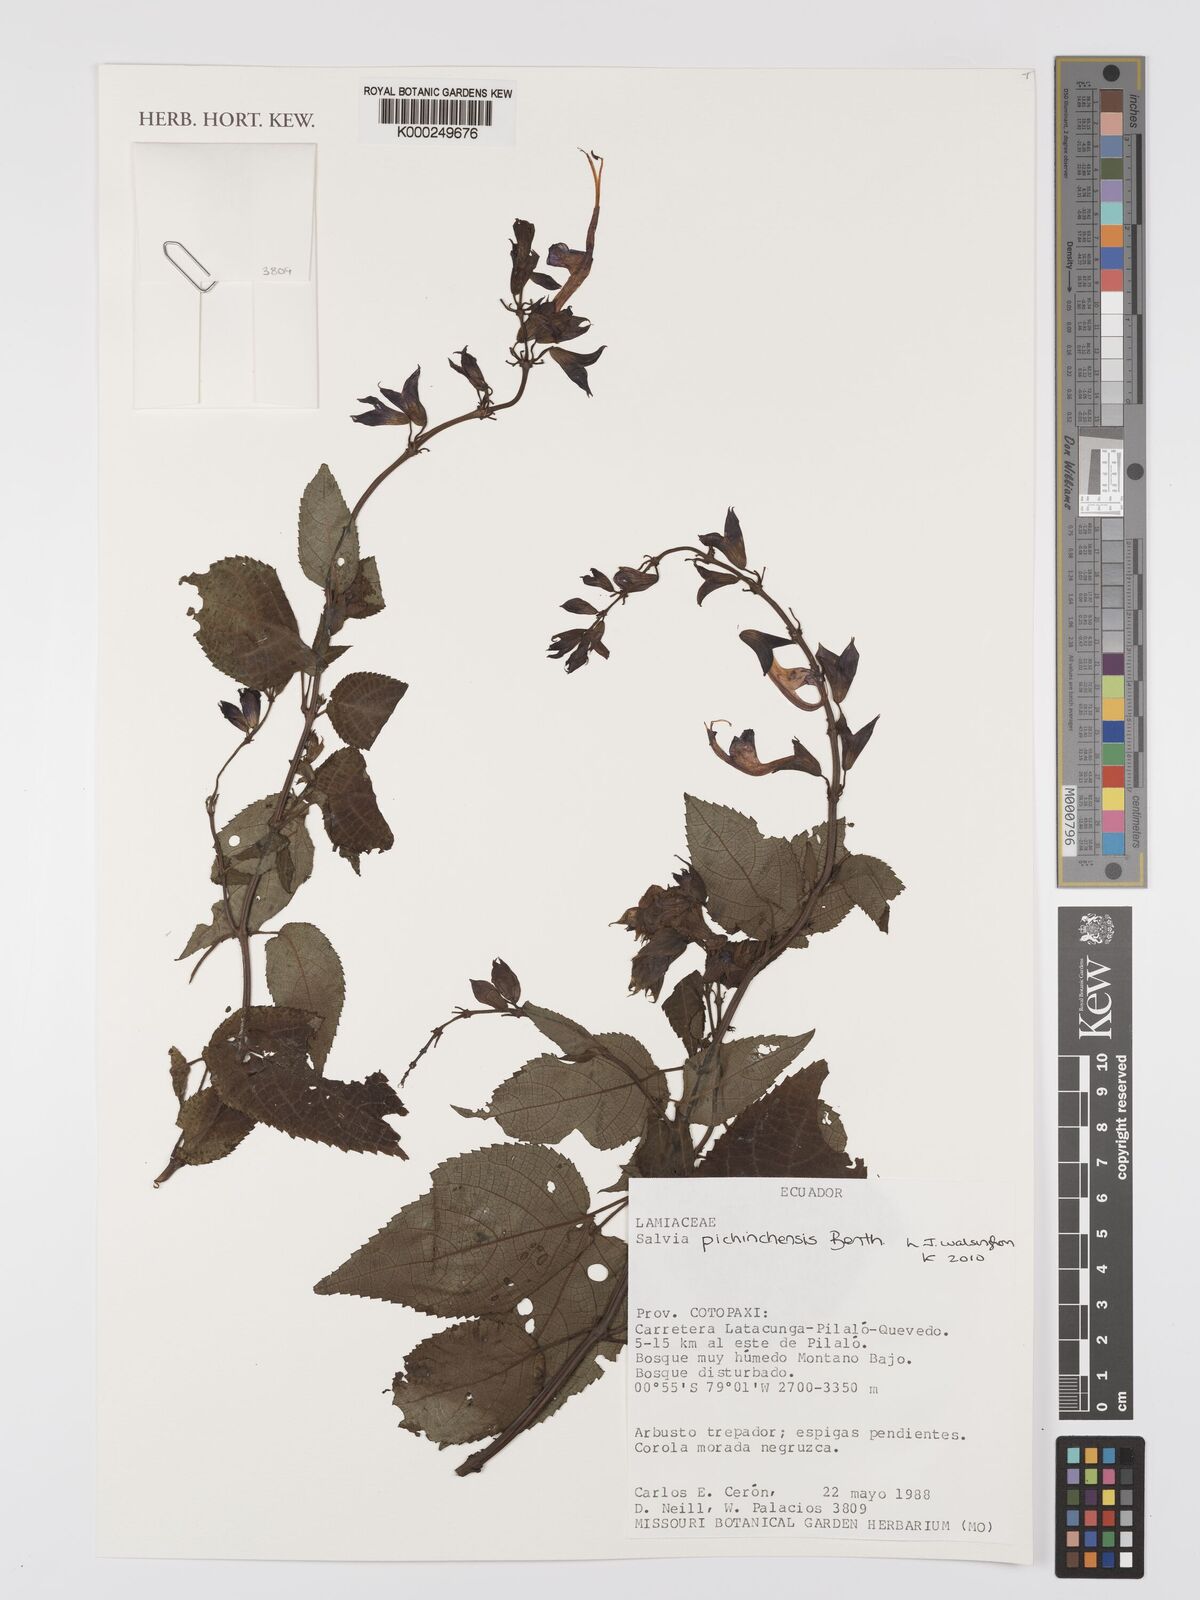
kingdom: Plantae
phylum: Tracheophyta
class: Magnoliopsida
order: Lamiales
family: Lamiaceae
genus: Salvia
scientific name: Salvia pichinchensis
